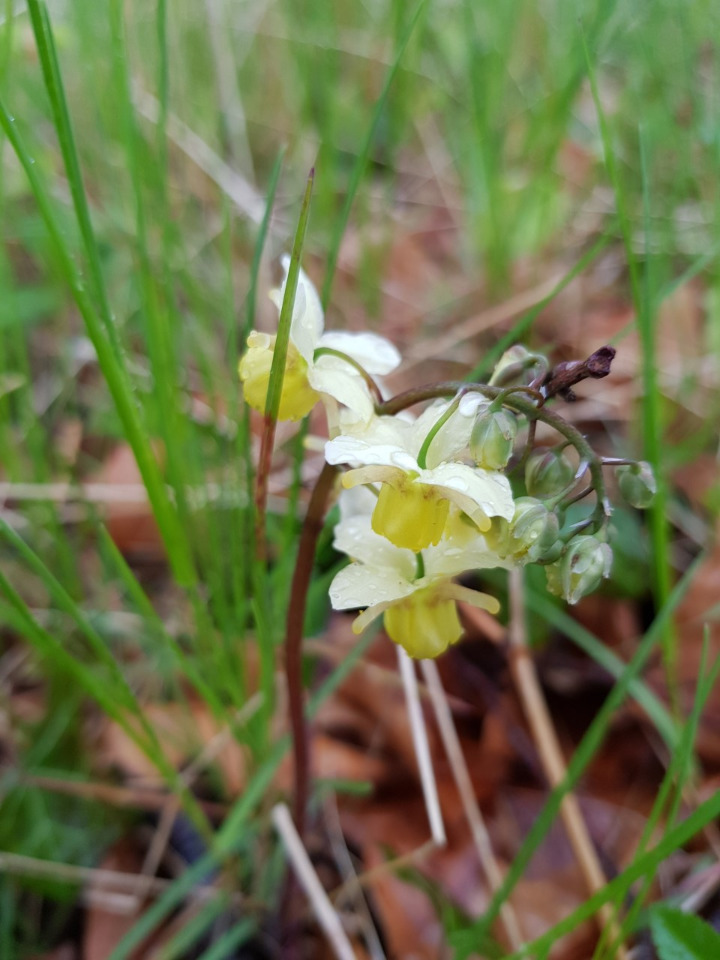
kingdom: Plantae
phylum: Tracheophyta
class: Magnoliopsida
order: Ranunculales
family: Berberidaceae
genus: Epimedium
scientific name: Epimedium versicolor
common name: Svovlgul bispehue
